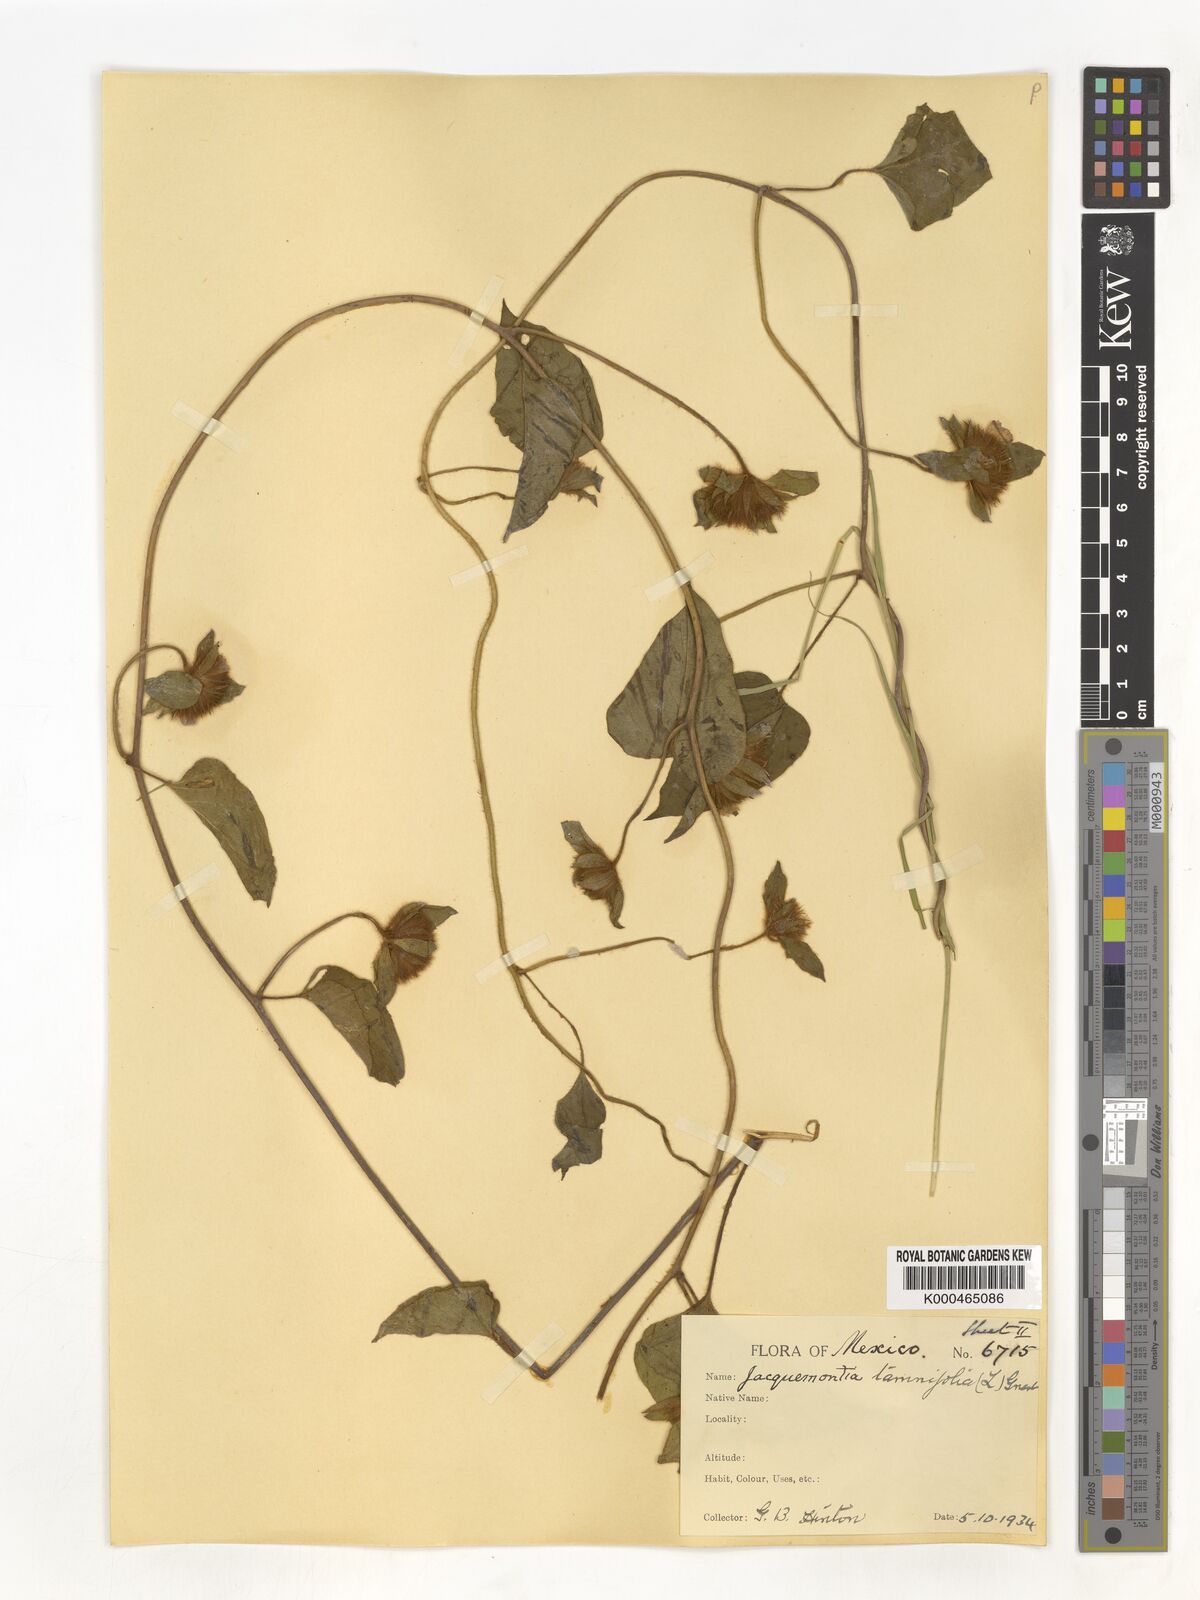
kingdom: Plantae
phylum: Tracheophyta
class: Magnoliopsida
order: Solanales
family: Convolvulaceae
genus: Jacquemontia
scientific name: Jacquemontia tamnifolia
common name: Hairy clustervine
